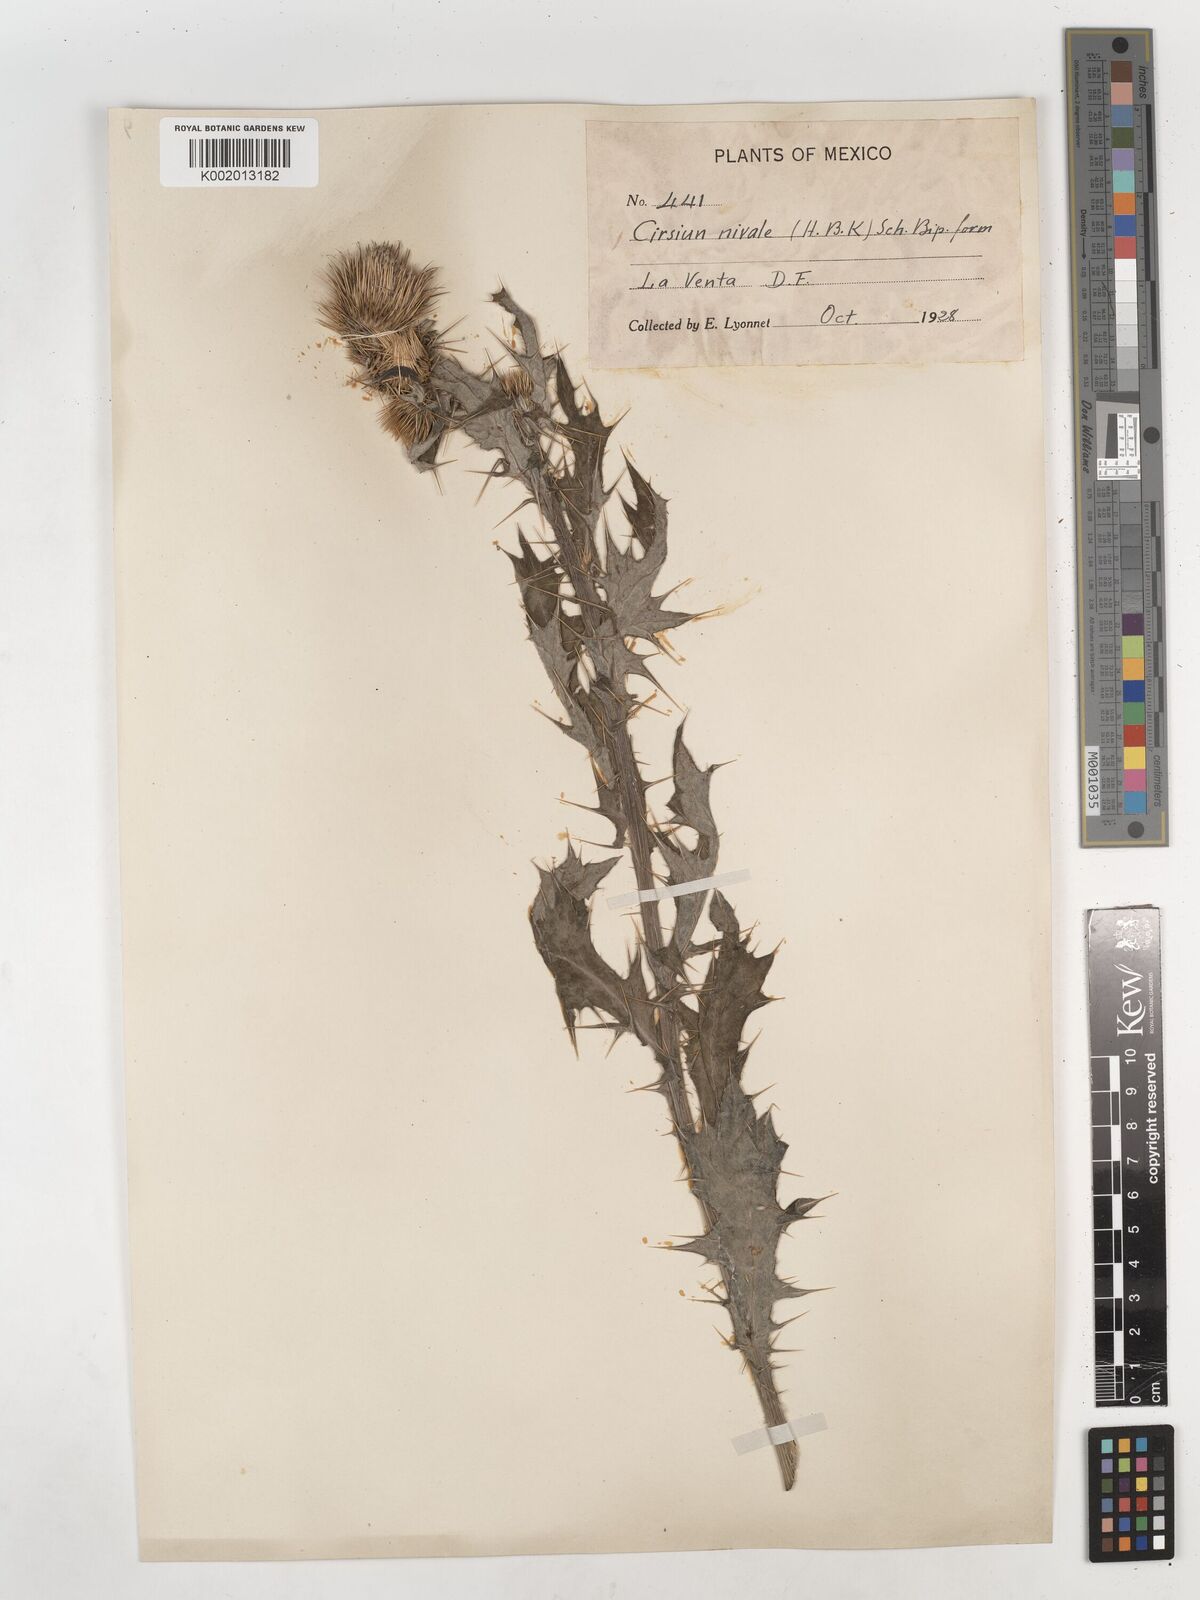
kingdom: Plantae
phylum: Tracheophyta
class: Magnoliopsida
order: Asterales
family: Asteraceae
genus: Cirsium
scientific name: Cirsium
